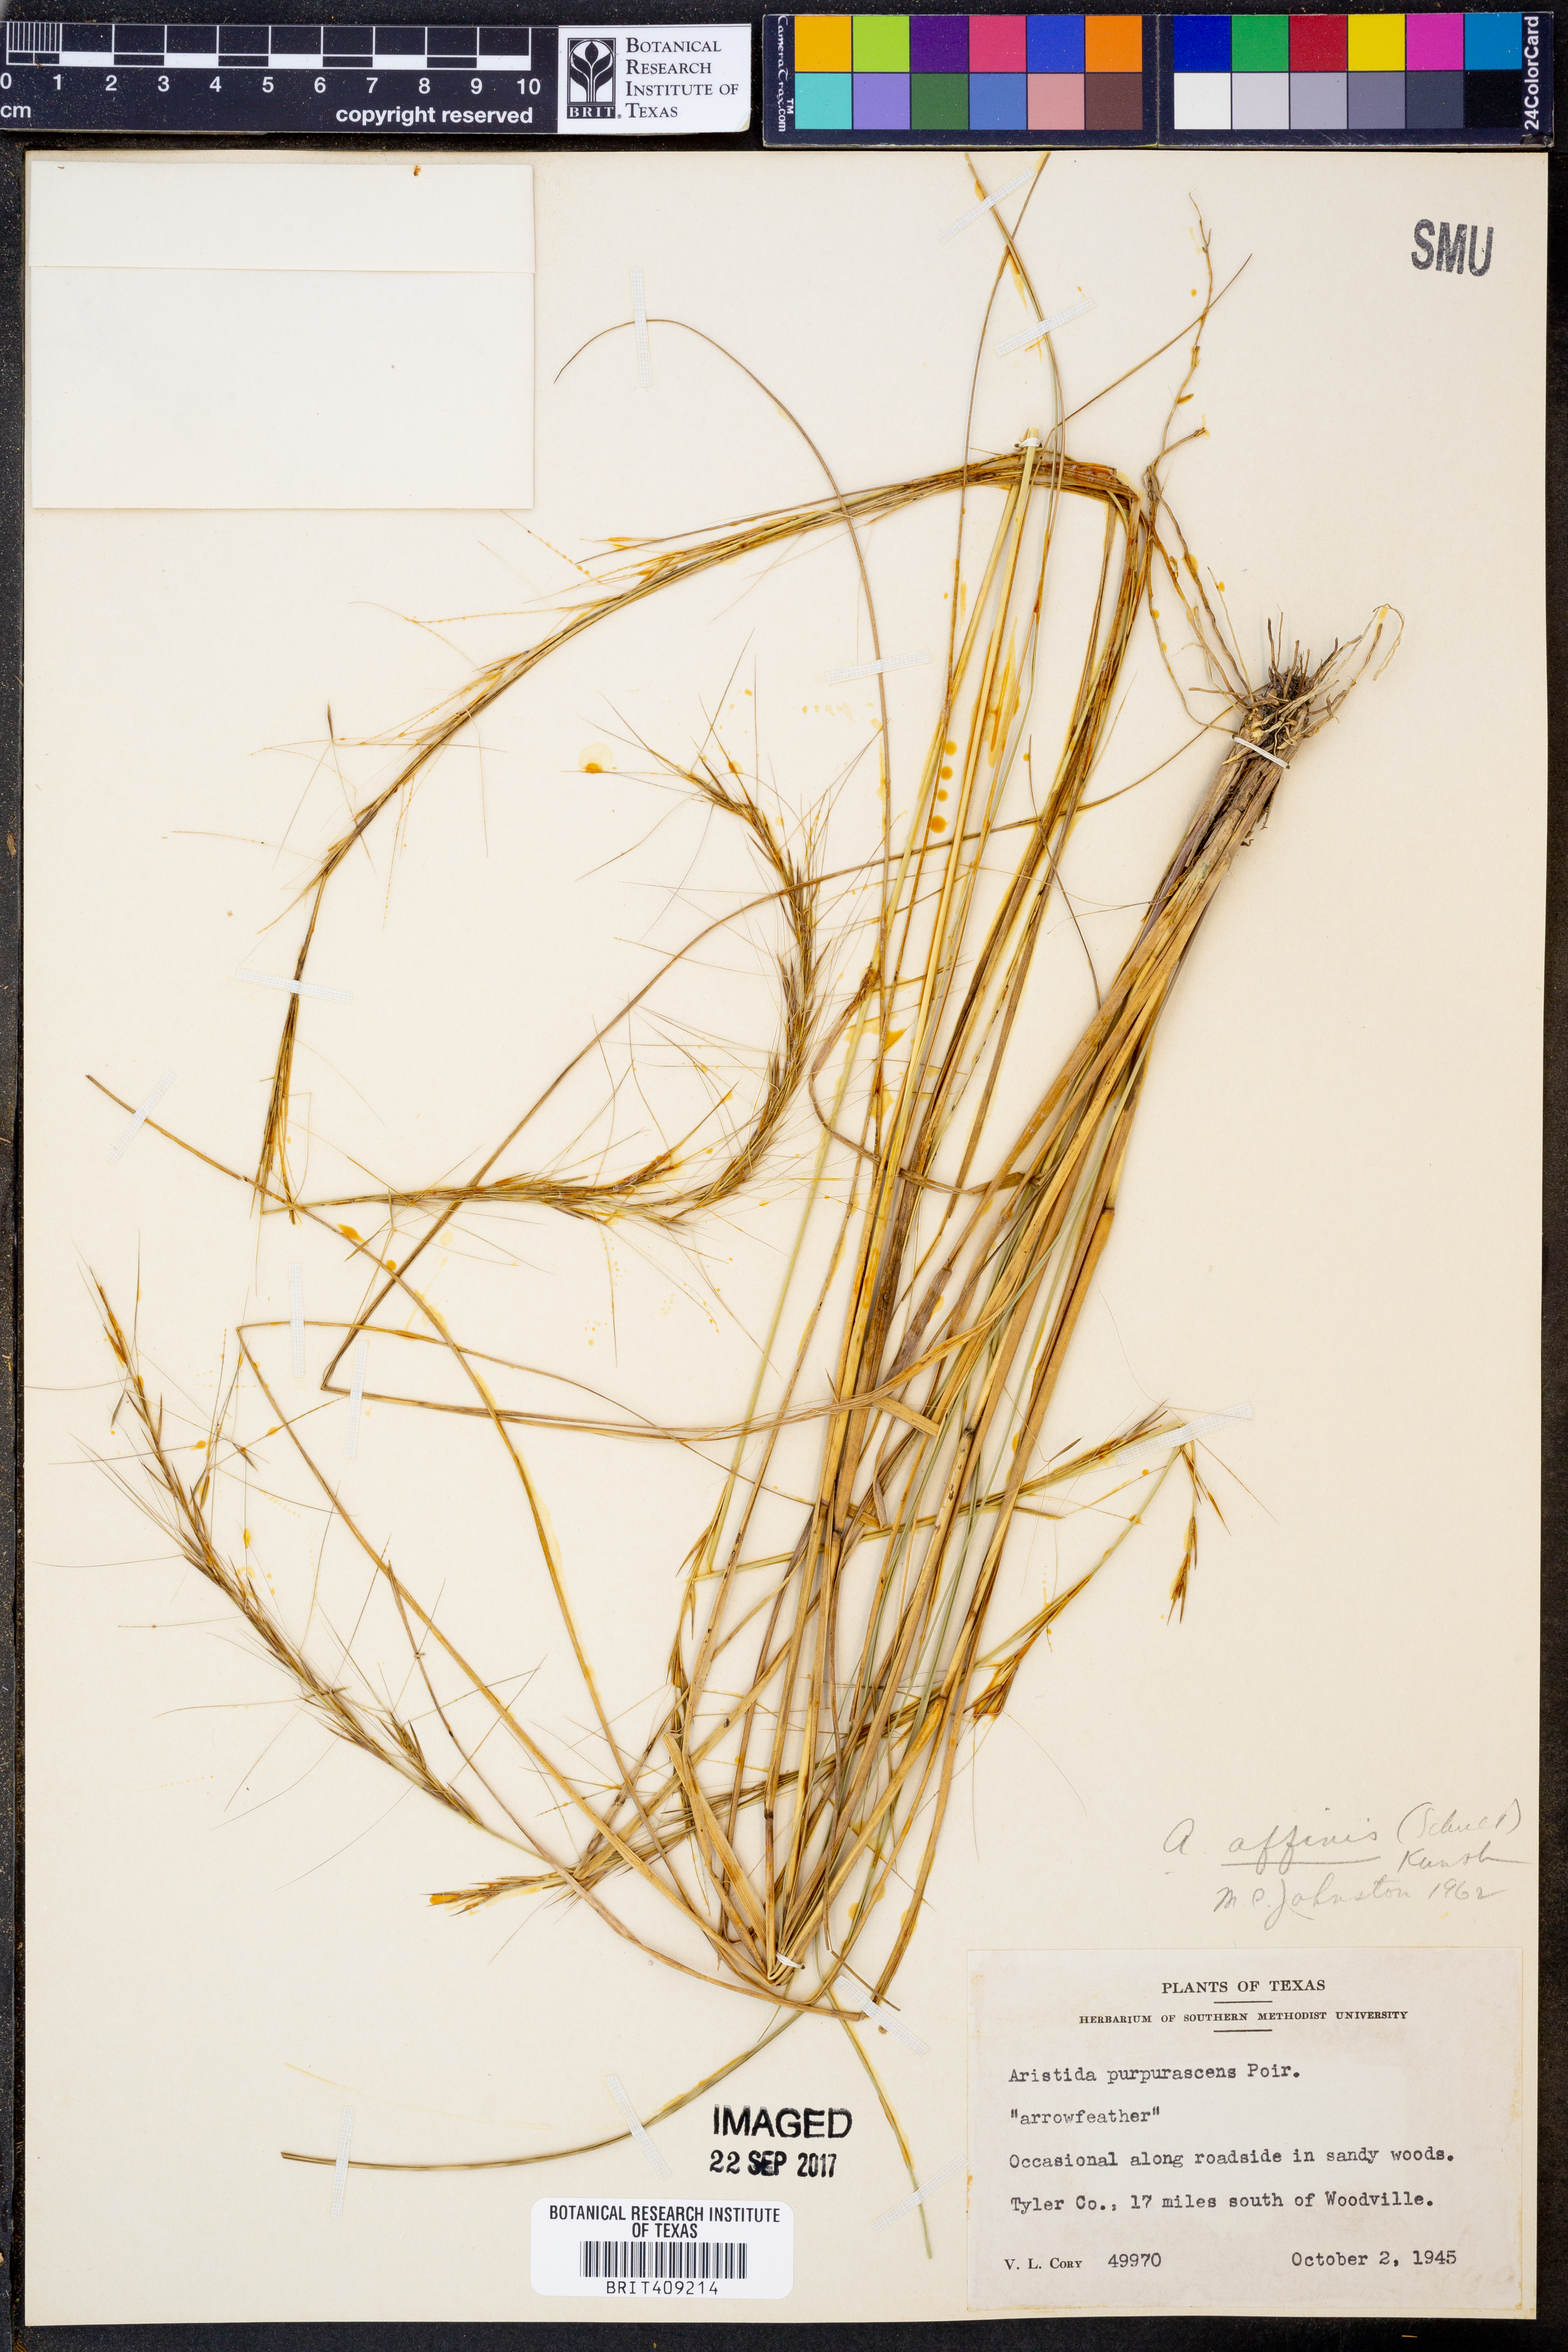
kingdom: Plantae
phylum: Tracheophyta
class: Liliopsida
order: Poales
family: Poaceae
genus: Aristida
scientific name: Aristida purpurascens
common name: Arrow-feather
